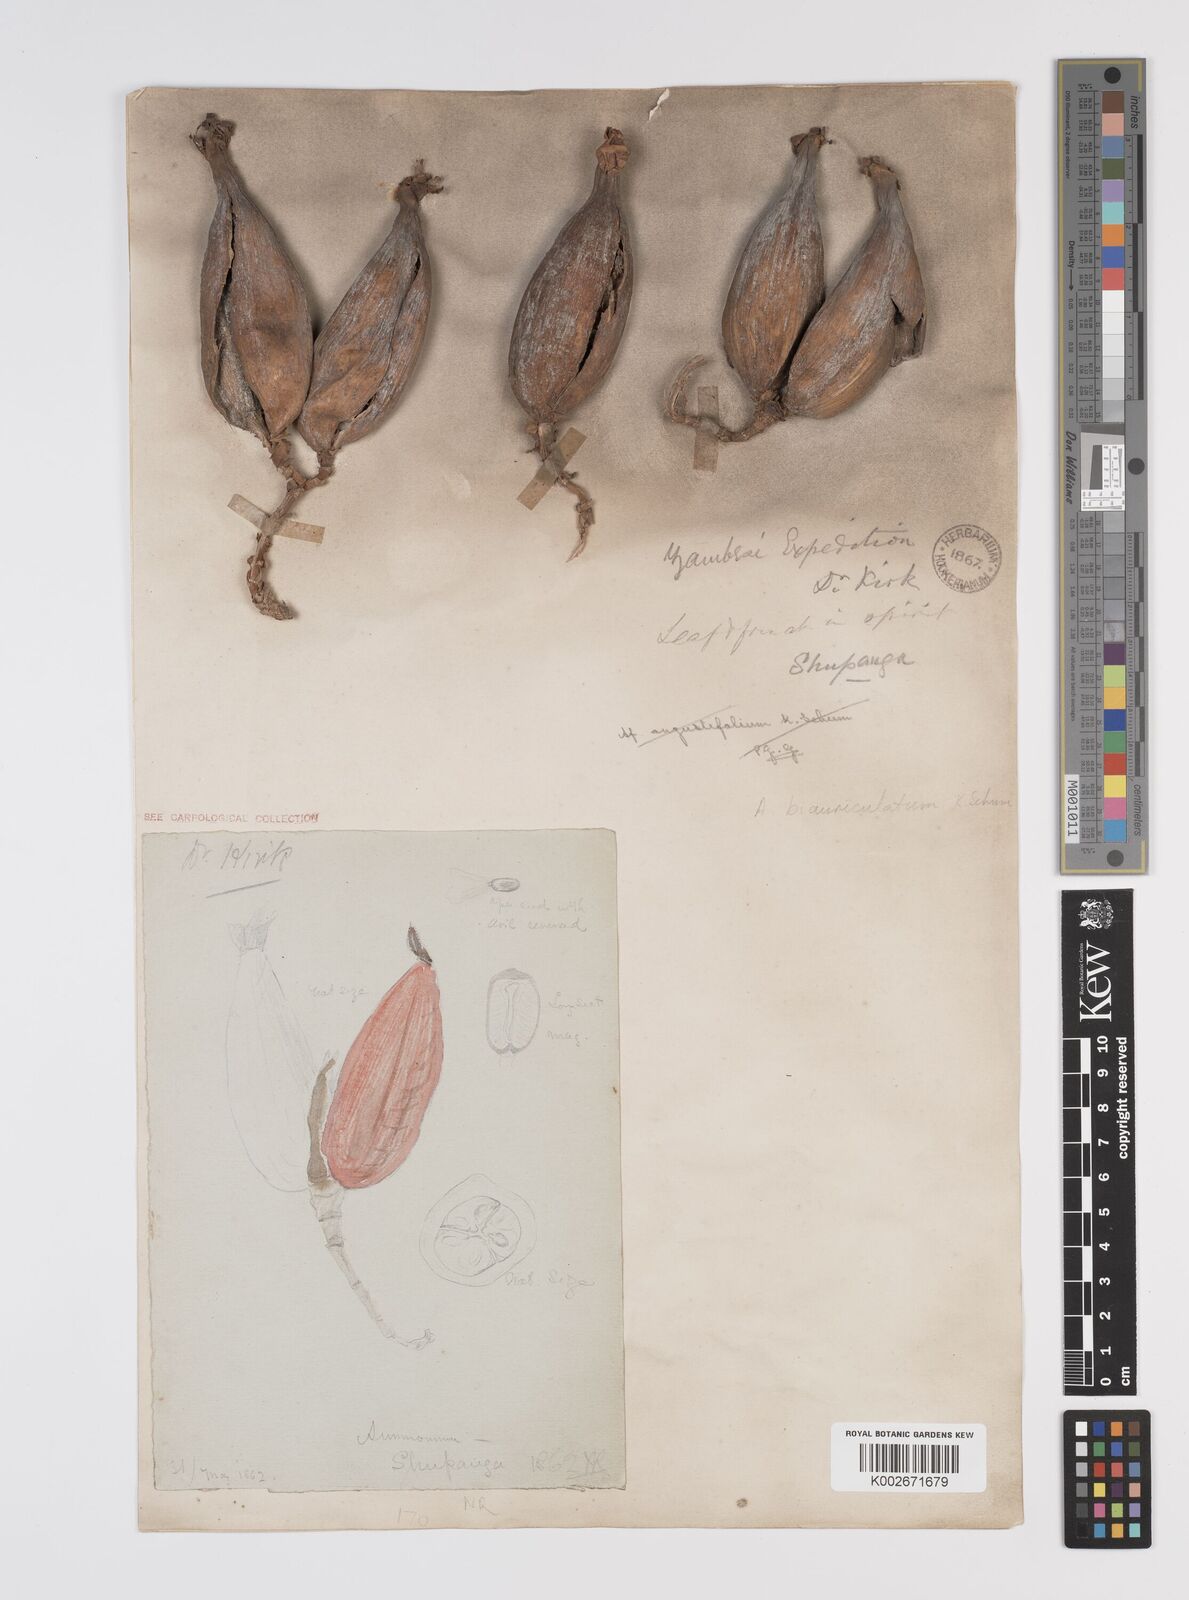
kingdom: Plantae
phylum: Tracheophyta
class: Liliopsida
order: Zingiberales
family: Zingiberaceae
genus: Aframomum
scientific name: Aframomum alboviolaceum
